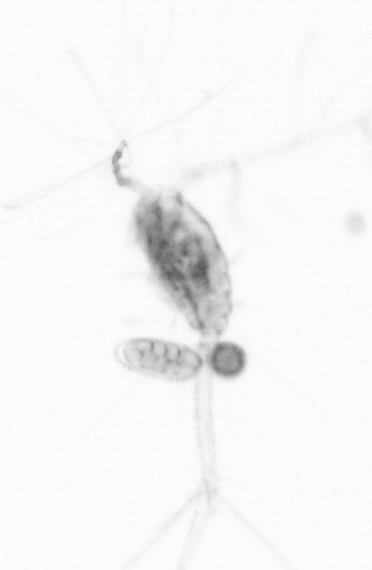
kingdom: Animalia
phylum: Arthropoda
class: Copepoda
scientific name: Copepoda
